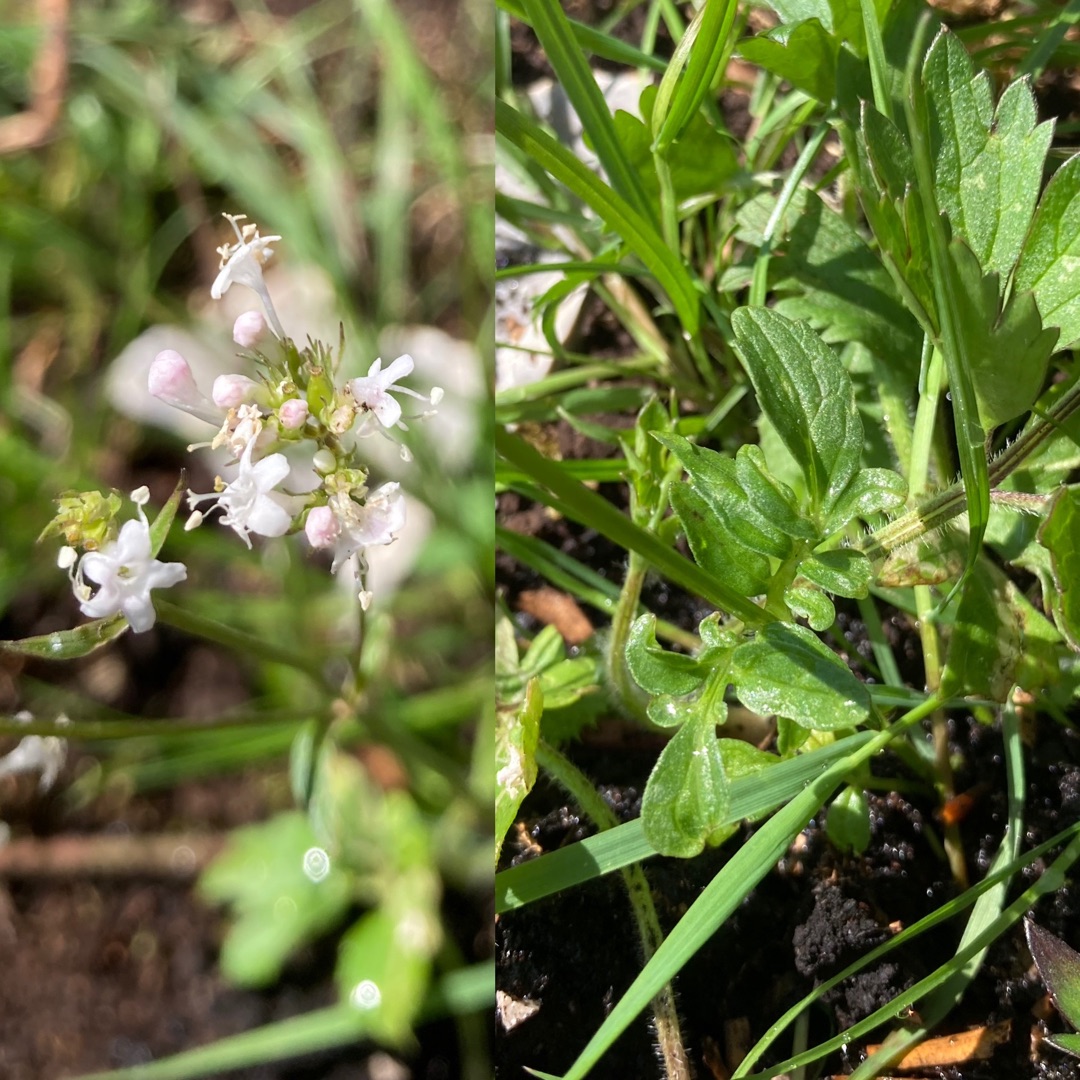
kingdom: Plantae
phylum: Tracheophyta
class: Magnoliopsida
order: Dipsacales
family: Caprifoliaceae
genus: Valeriana
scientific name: Valeriana dioica
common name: Tvebo baldrian
